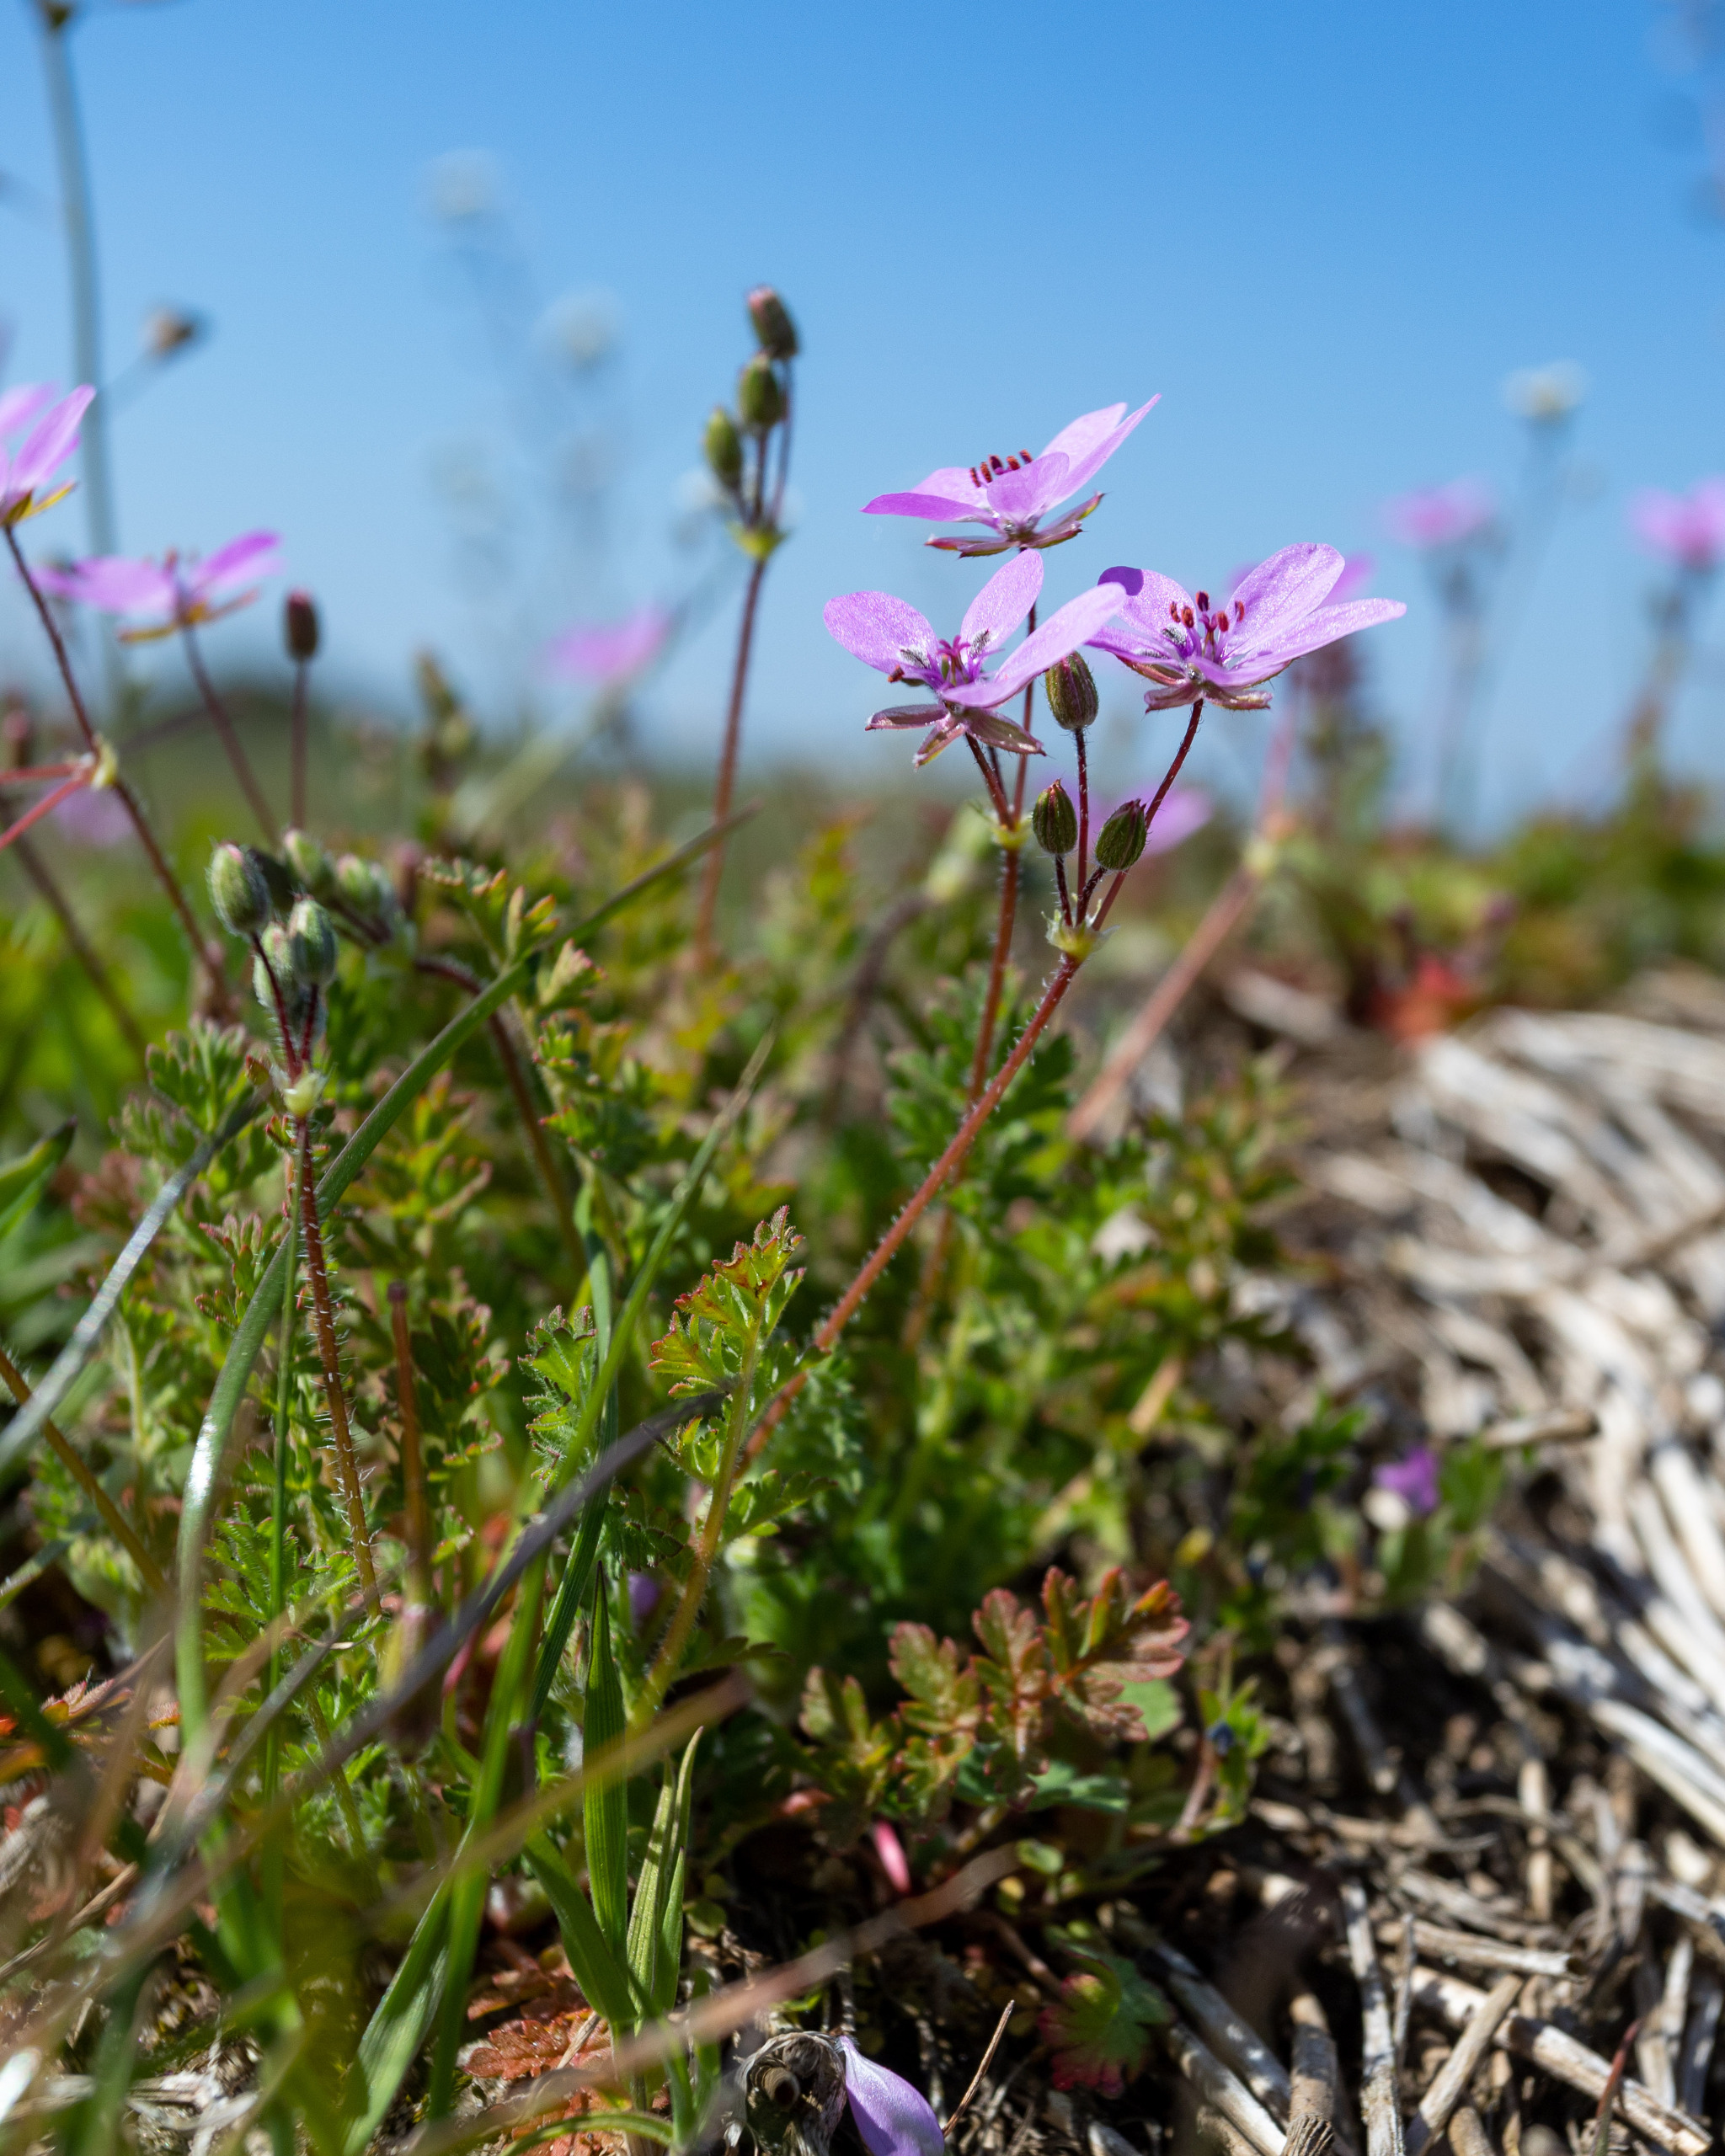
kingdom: Plantae
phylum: Tracheophyta
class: Magnoliopsida
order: Geraniales
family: Geraniaceae
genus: Erodium
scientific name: Erodium cicutarium
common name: Hejrenæb
